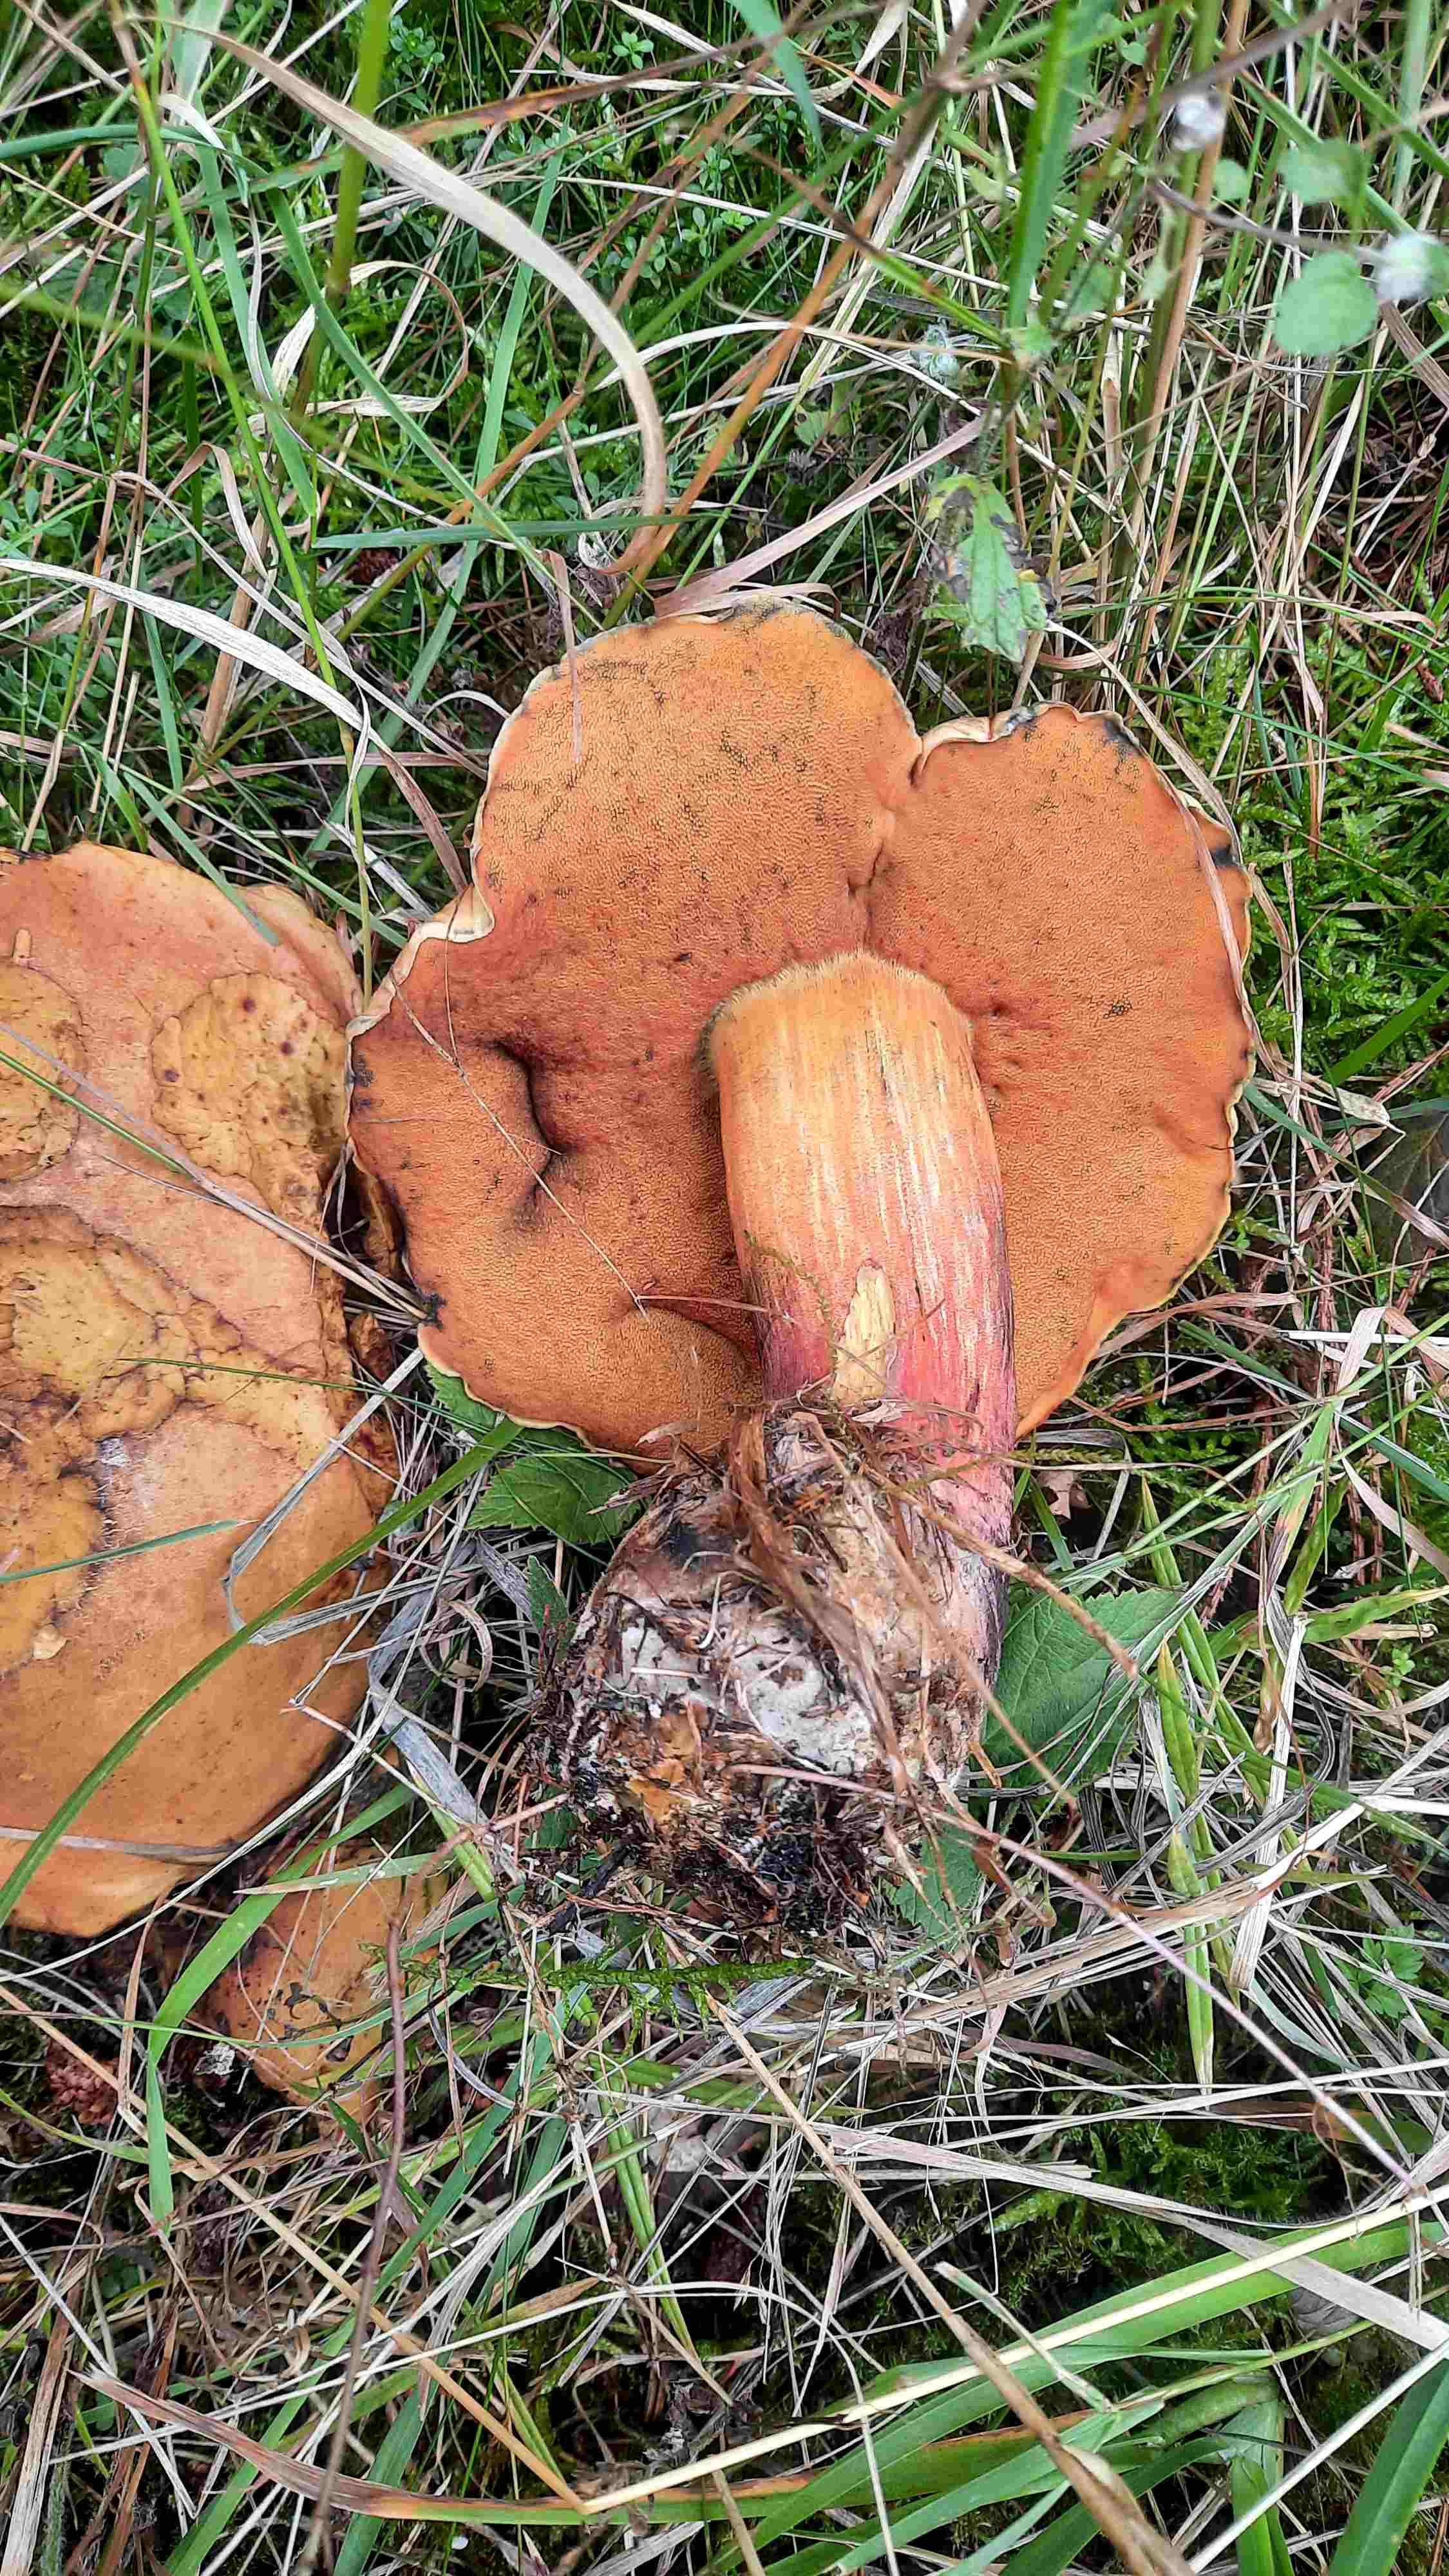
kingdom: Fungi
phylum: Basidiomycota
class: Agaricomycetes
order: Boletales
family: Boletaceae
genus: Neoboletus
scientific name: Neoboletus erythropus
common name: punktstokket indigorørhat
